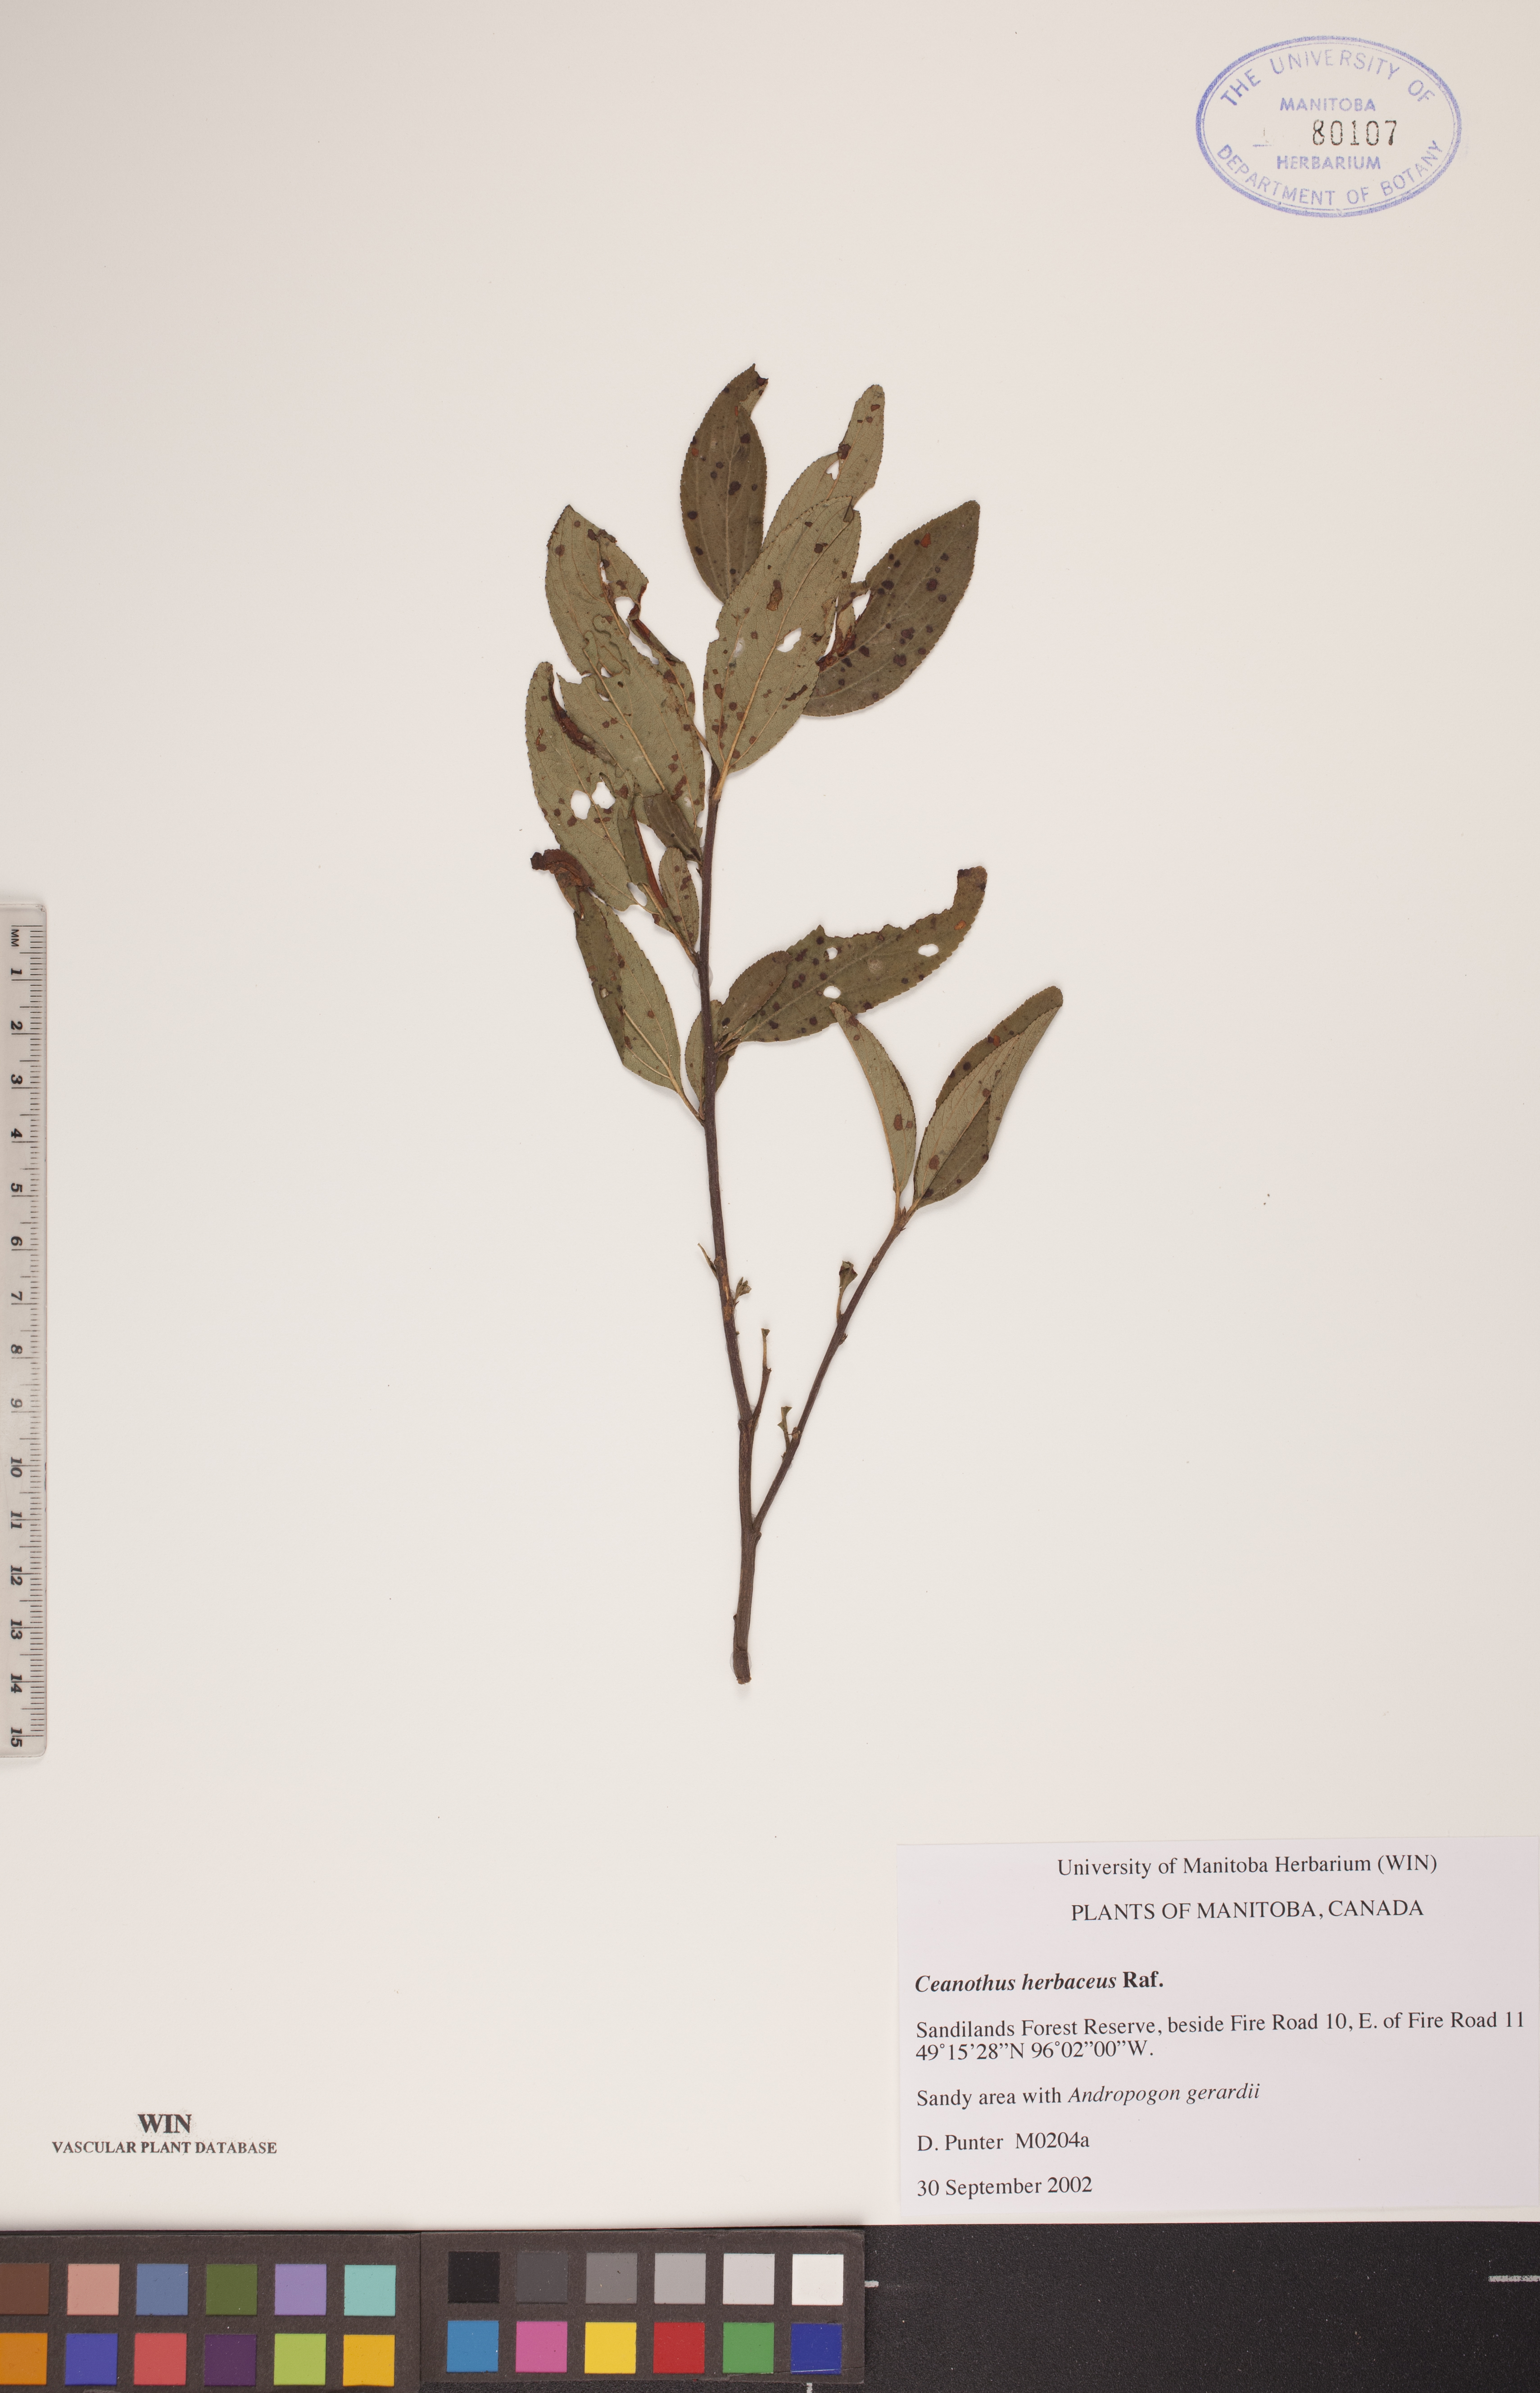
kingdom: Plantae
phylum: Tracheophyta
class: Magnoliopsida
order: Rosales
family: Rhamnaceae
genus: Ceanothus
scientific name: Ceanothus herbaceus
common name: Inland ceanothus
